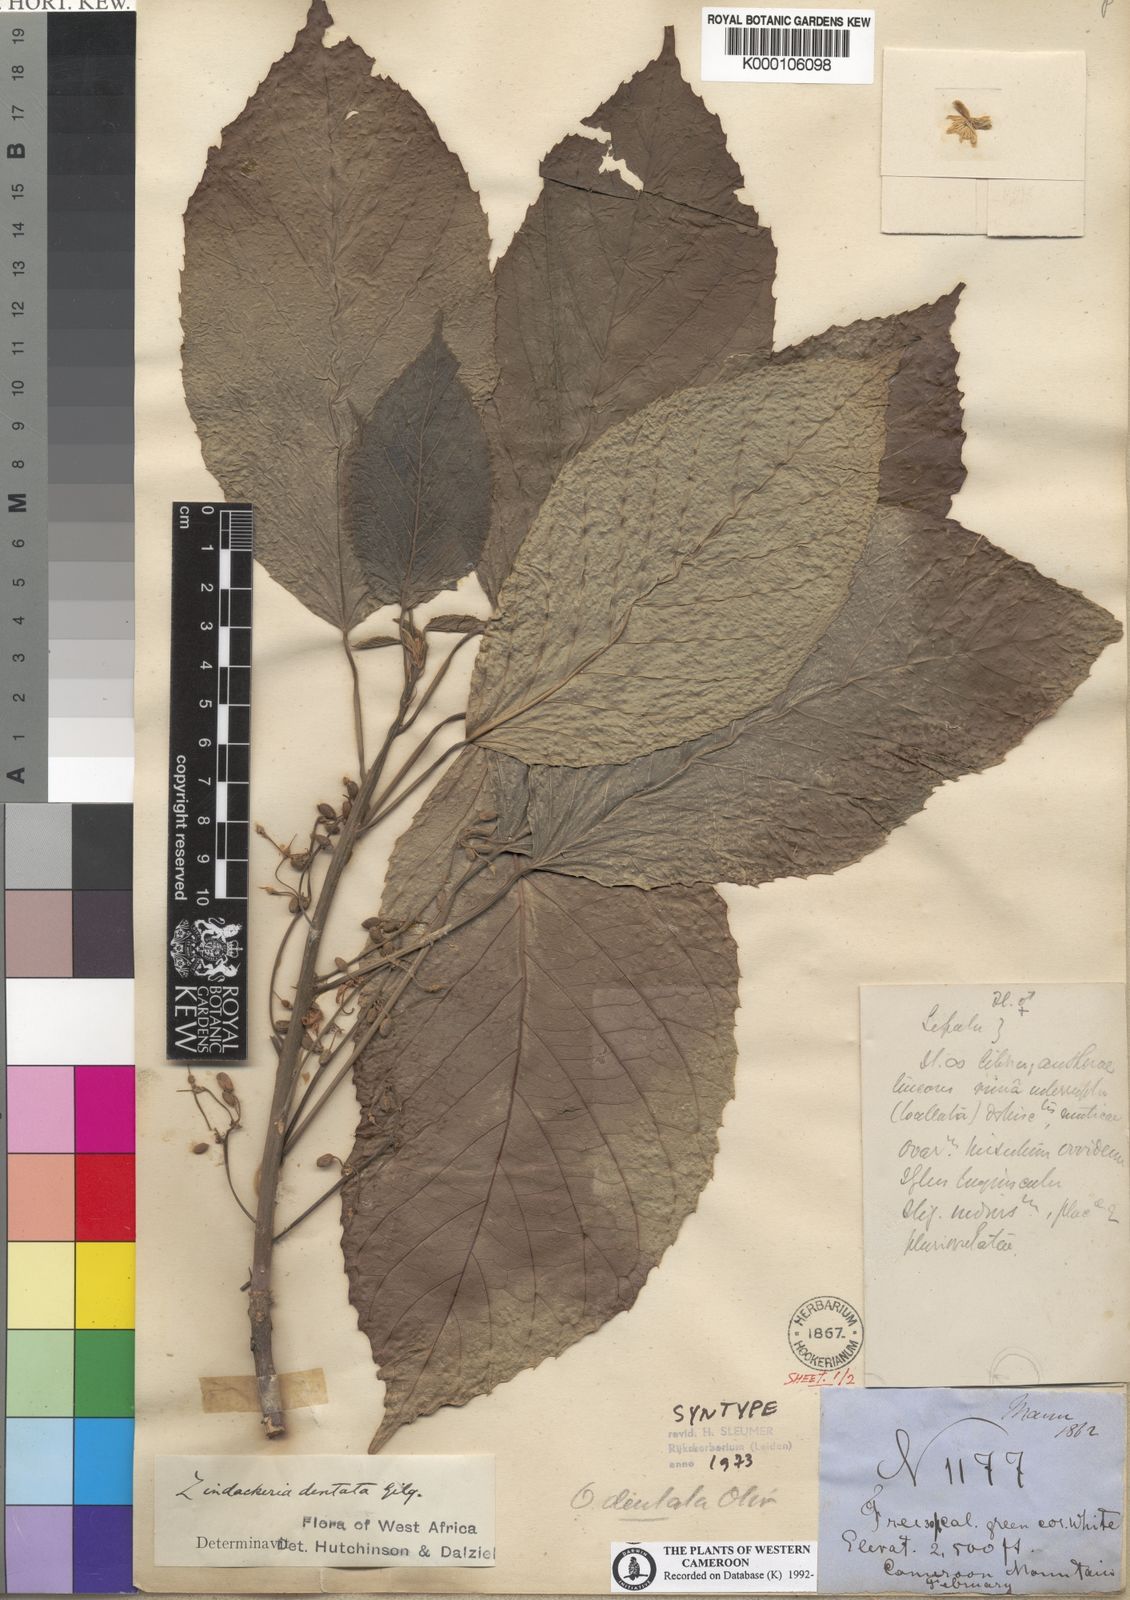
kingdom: Plantae
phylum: Tracheophyta
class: Magnoliopsida
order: Malpighiales
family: Achariaceae
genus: Lindackeria
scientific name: Lindackeria dentata
